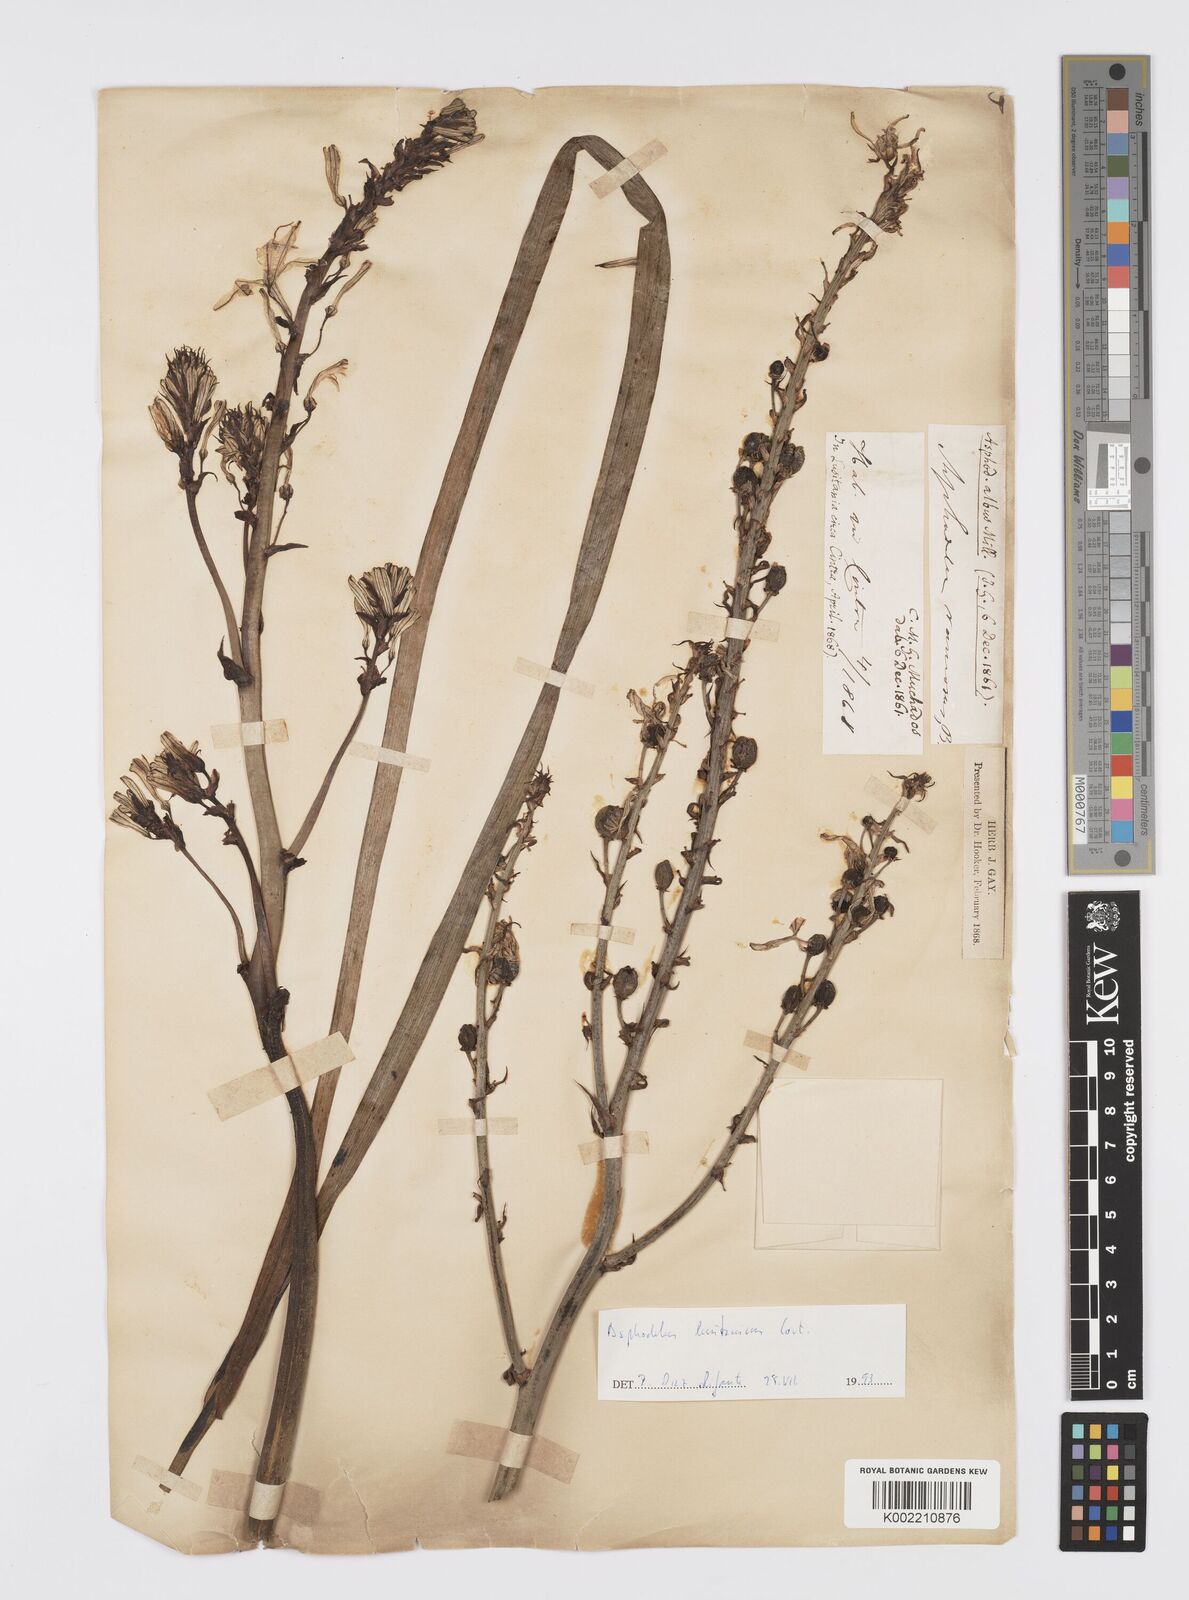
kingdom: Plantae
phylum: Tracheophyta
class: Liliopsida
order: Asparagales
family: Asphodelaceae
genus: Asphodelus
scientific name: Asphodelus albus
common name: White asphodel
